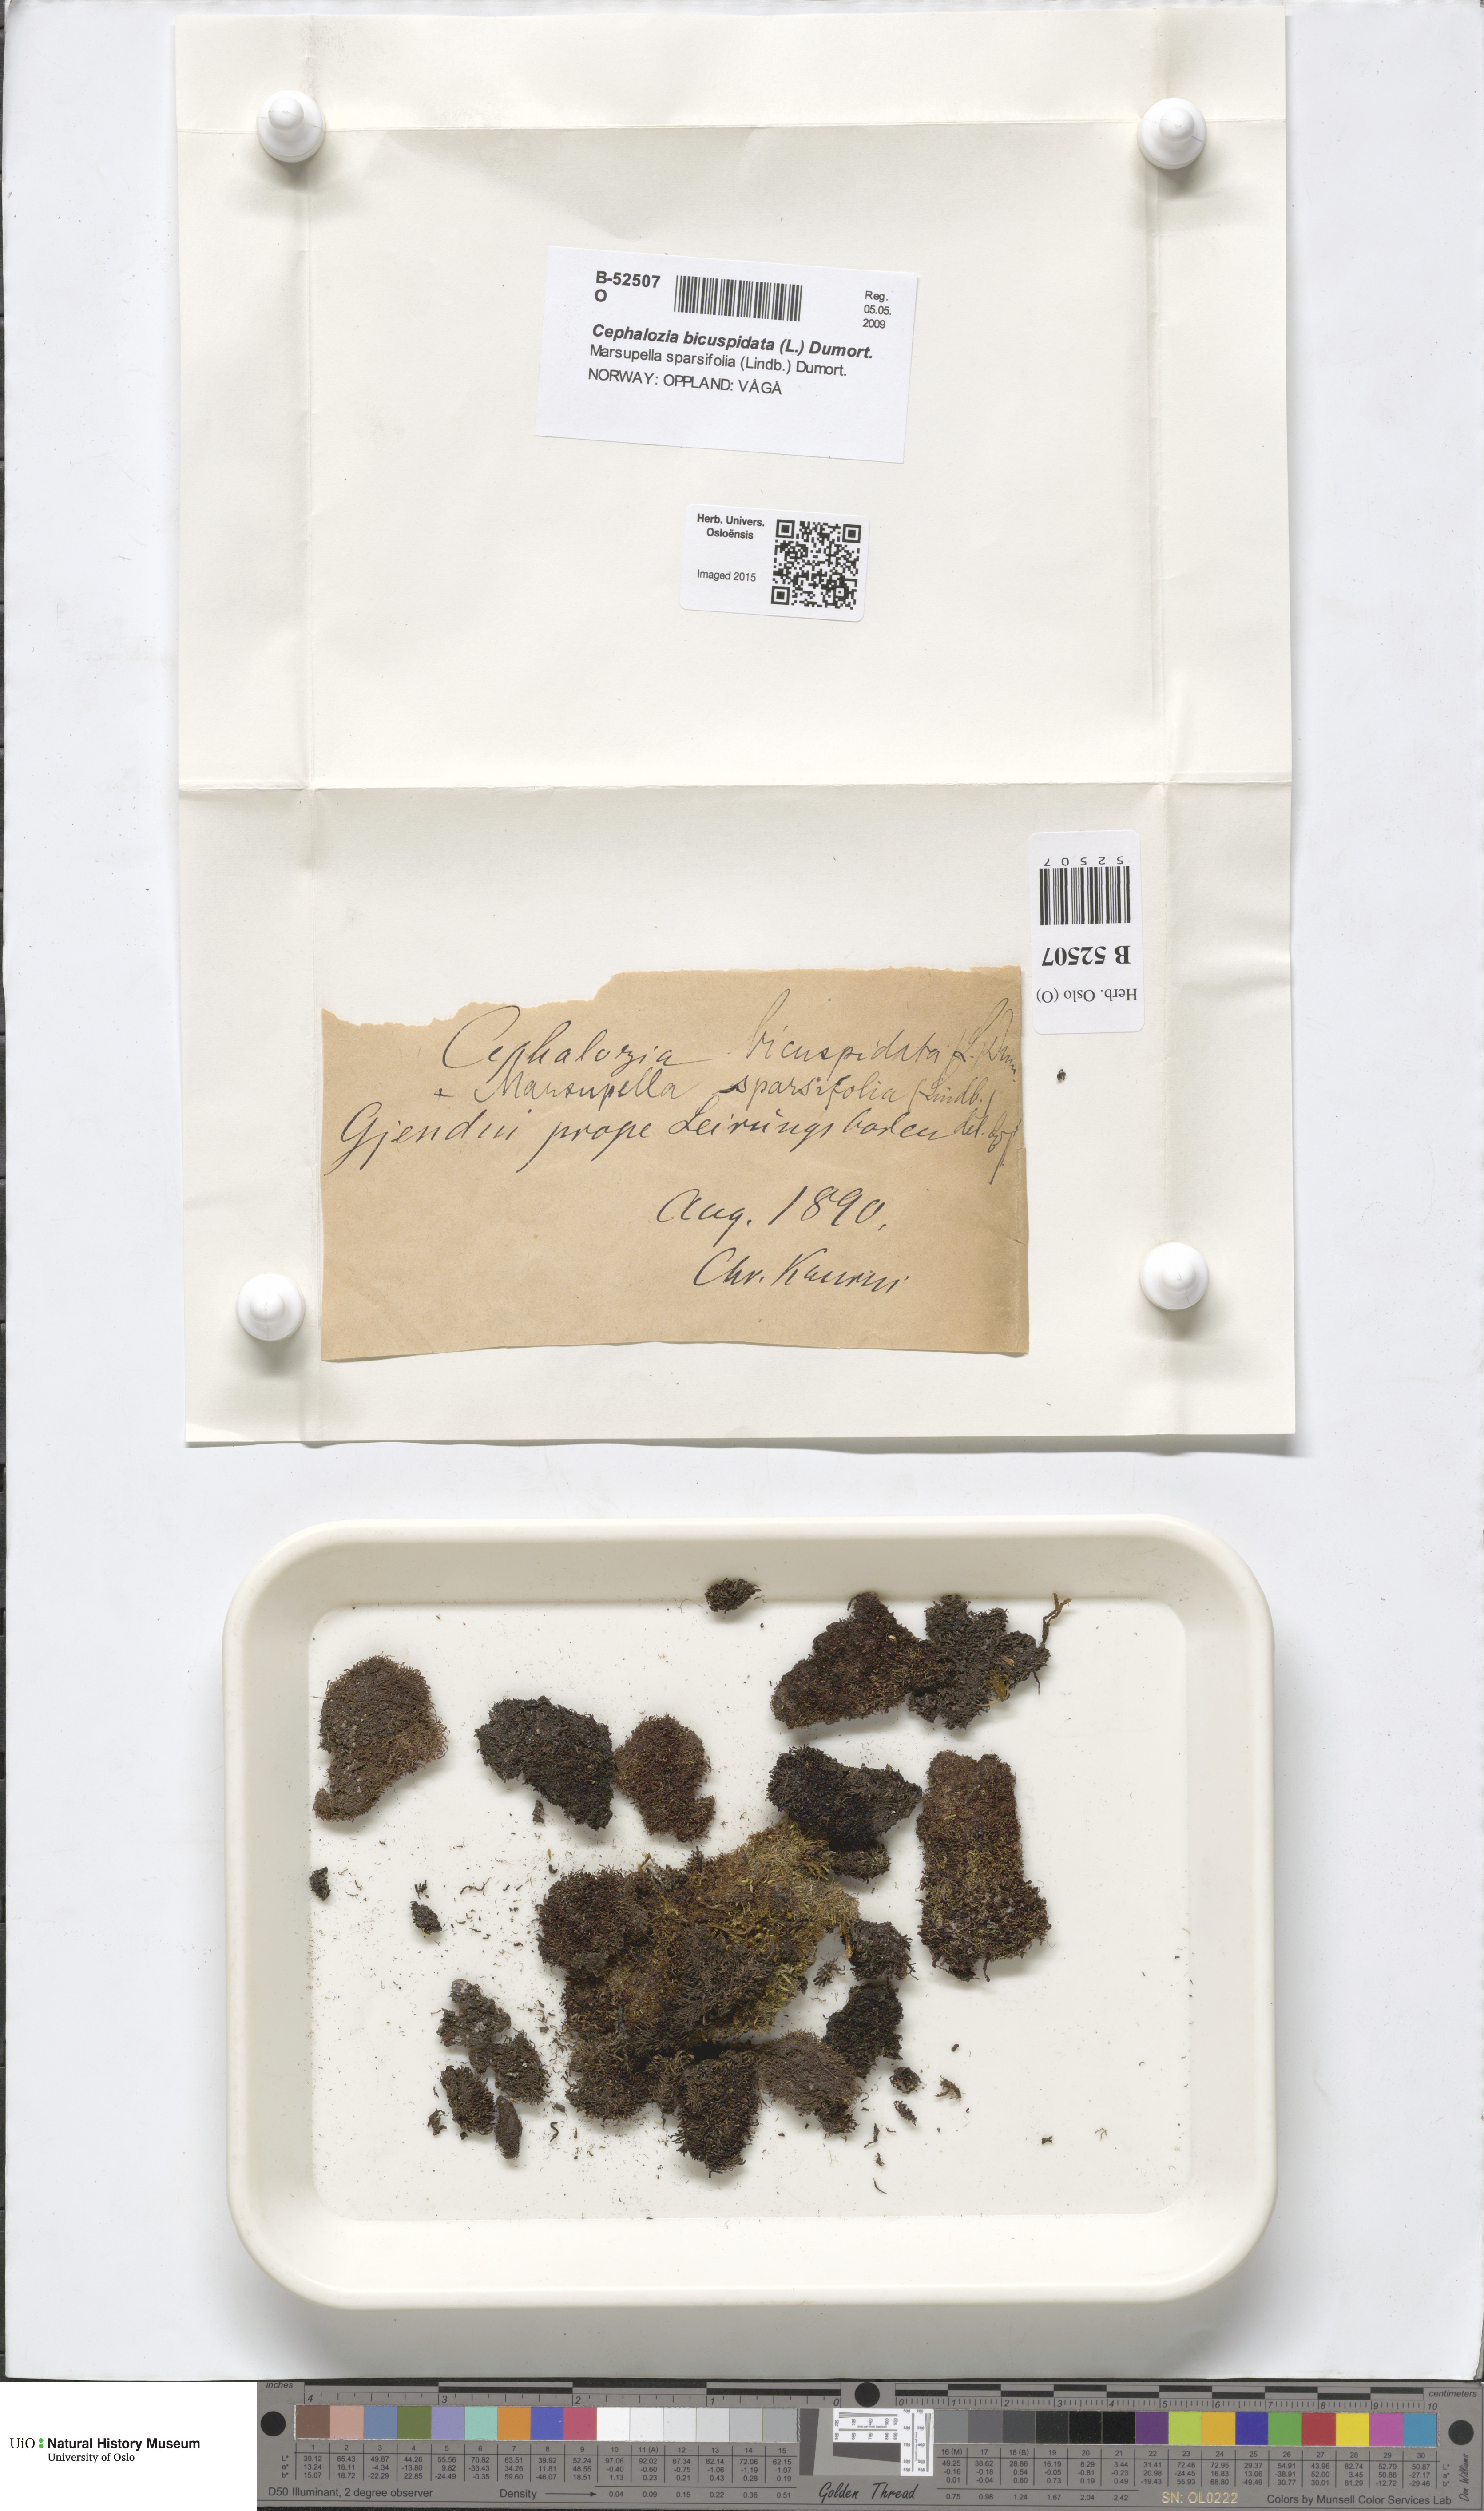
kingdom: Plantae
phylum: Marchantiophyta
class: Jungermanniopsida
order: Jungermanniales
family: Cephaloziaceae
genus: Cephalozia
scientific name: Cephalozia bicuspidata
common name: Two-horned pincerwort
